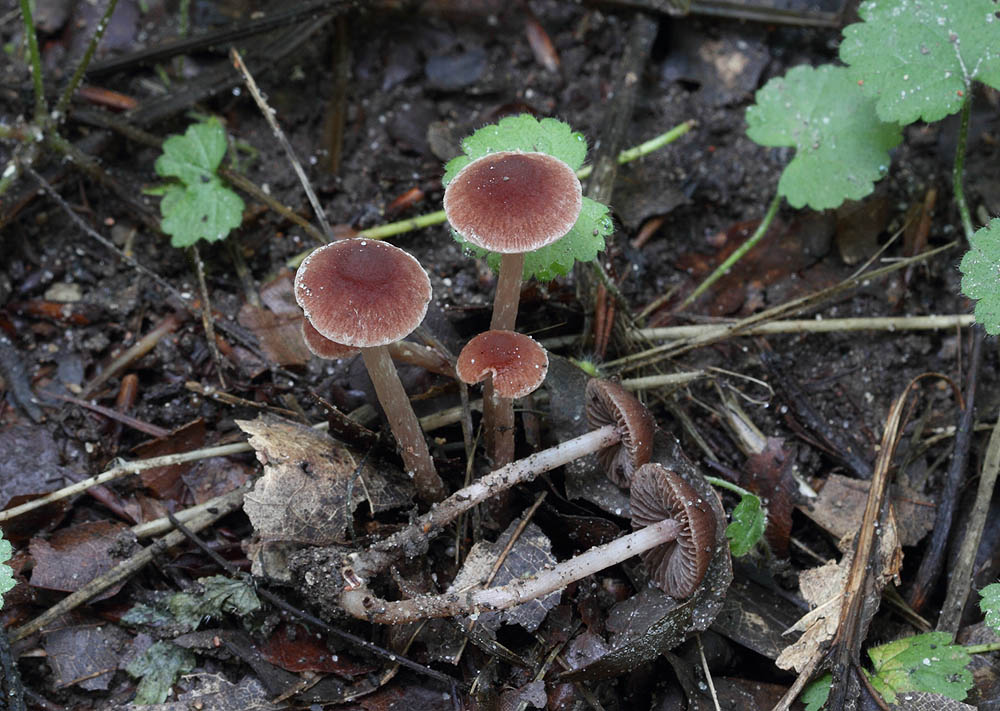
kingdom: Fungi
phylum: Basidiomycota
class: Agaricomycetes
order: Agaricales
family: Psathyrellaceae
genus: Psathyrella
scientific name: Psathyrella bipellis
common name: vinrød mørkhat
